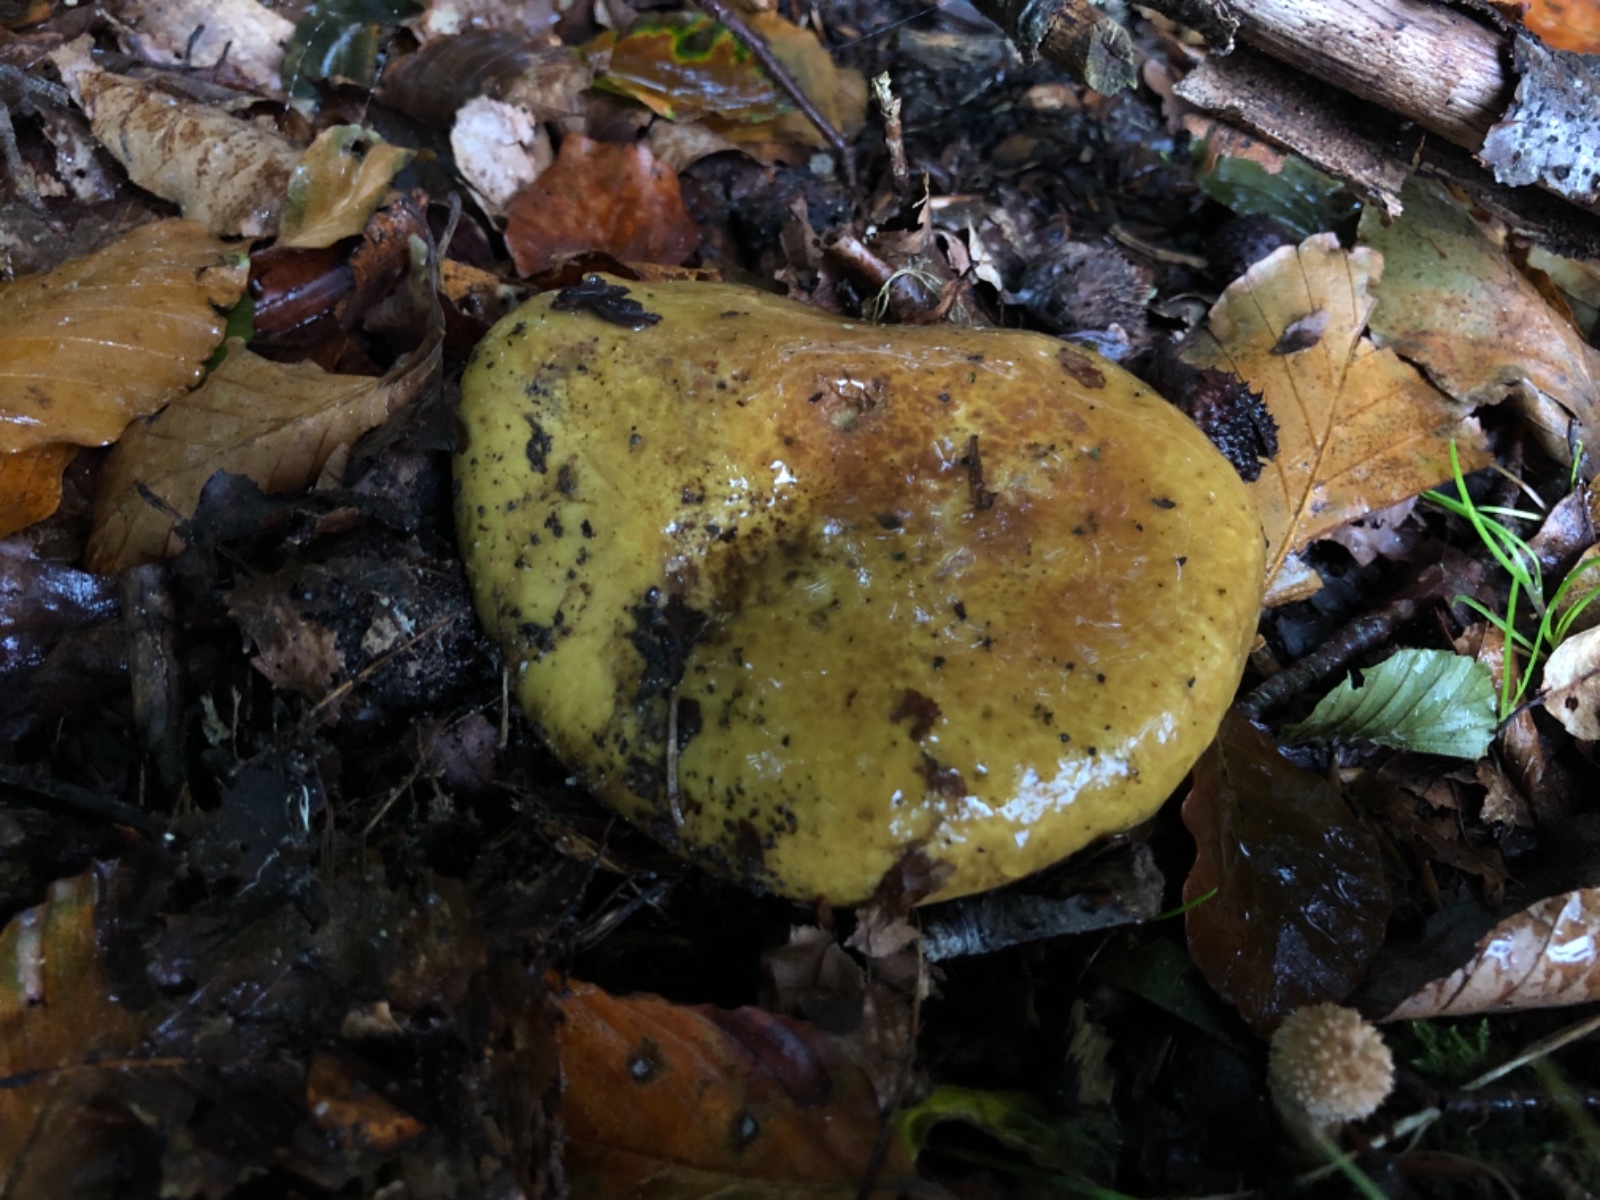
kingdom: Fungi
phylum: Basidiomycota
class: Agaricomycetes
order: Agaricales
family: Cortinariaceae
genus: Cortinarius
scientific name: Cortinarius
